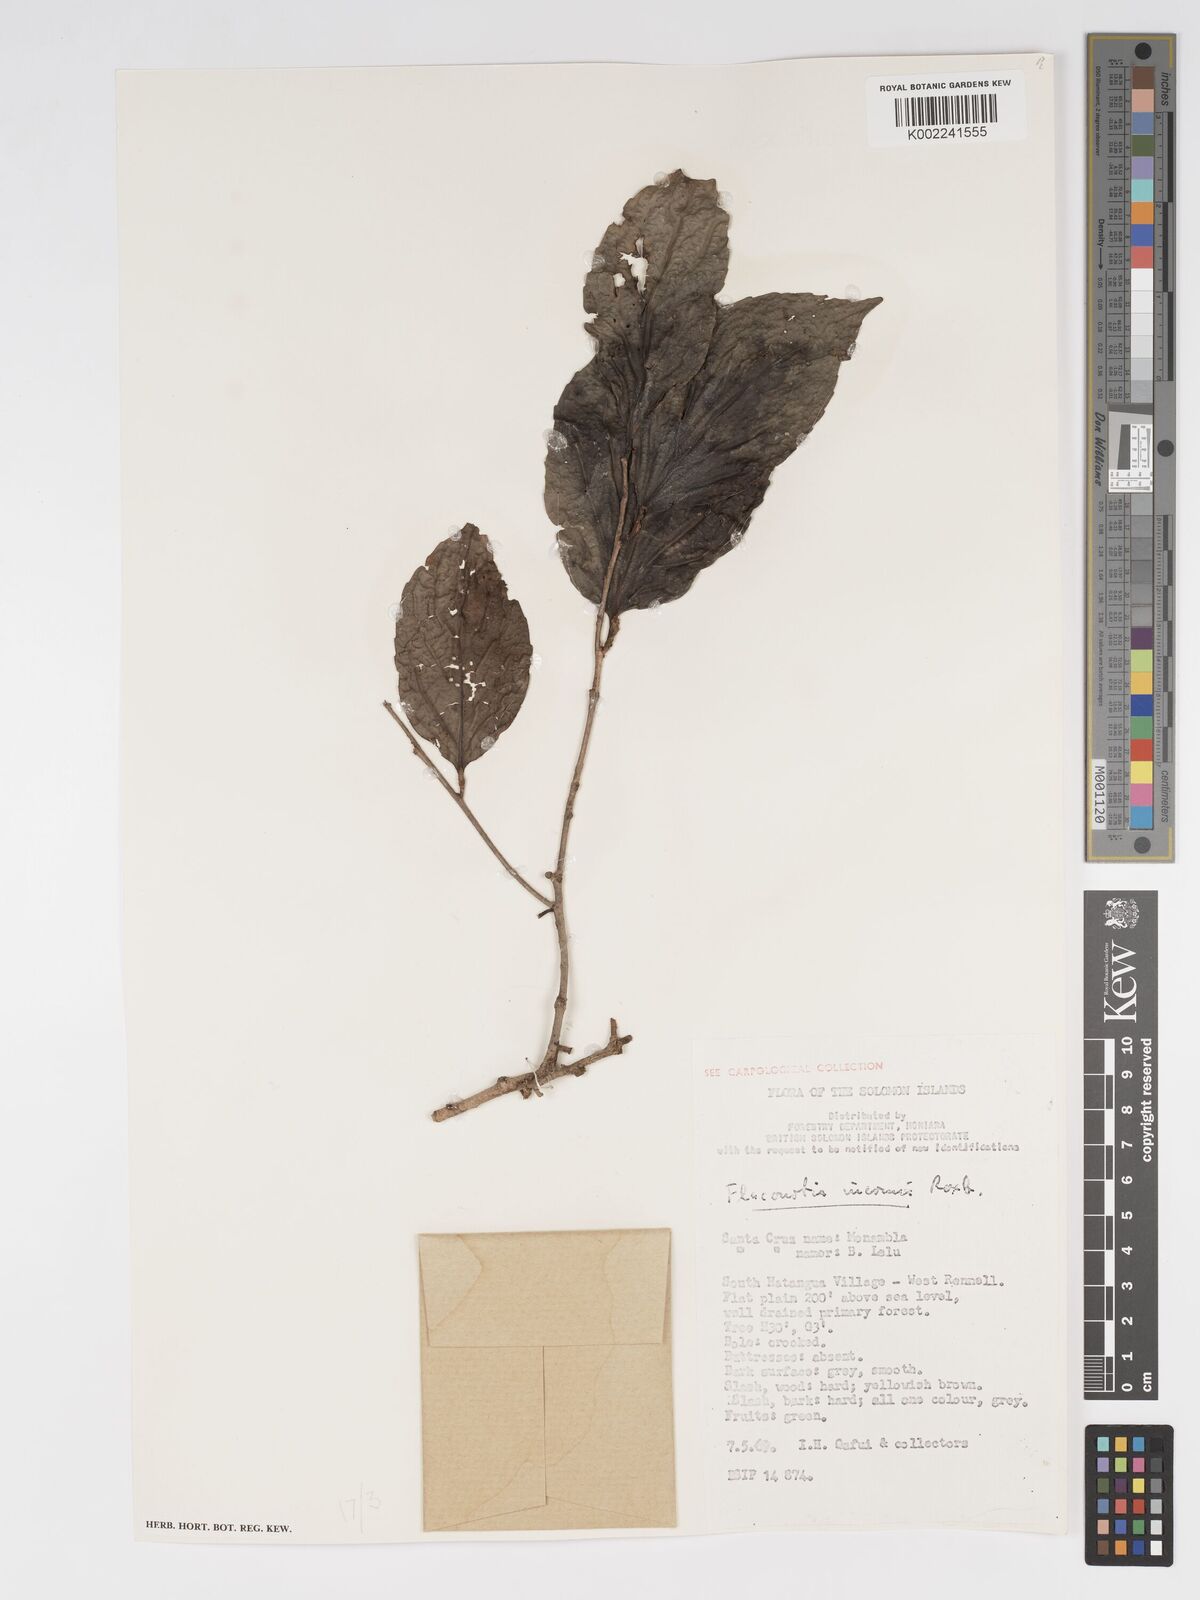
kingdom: Plantae
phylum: Tracheophyta
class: Magnoliopsida
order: Malpighiales
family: Salicaceae
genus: Flacourtia
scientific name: Flacourtia inermis
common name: Plum-of-martinique
